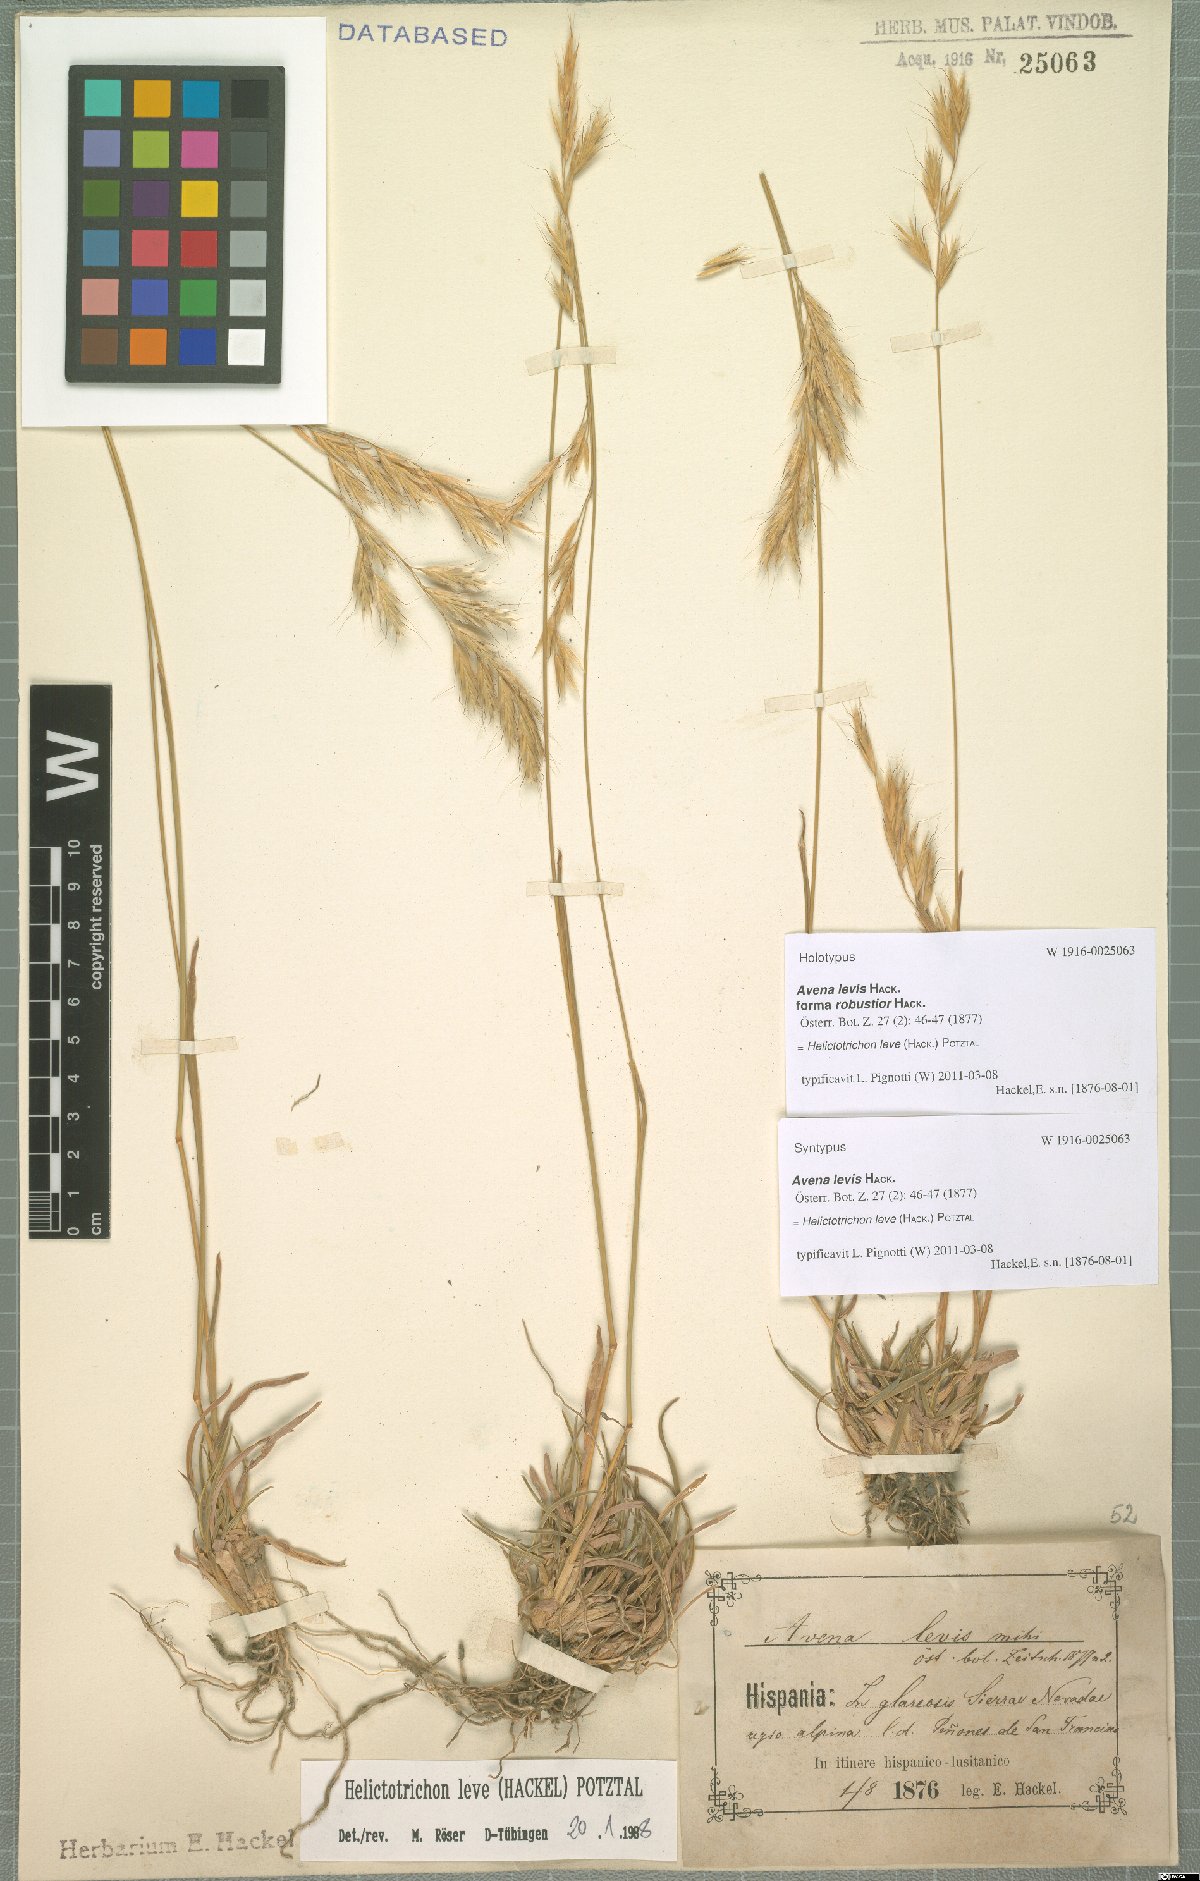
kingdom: Plantae
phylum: Tracheophyta
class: Liliopsida
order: Poales
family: Poaceae
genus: Helictochloa
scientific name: Helictochloa levis
